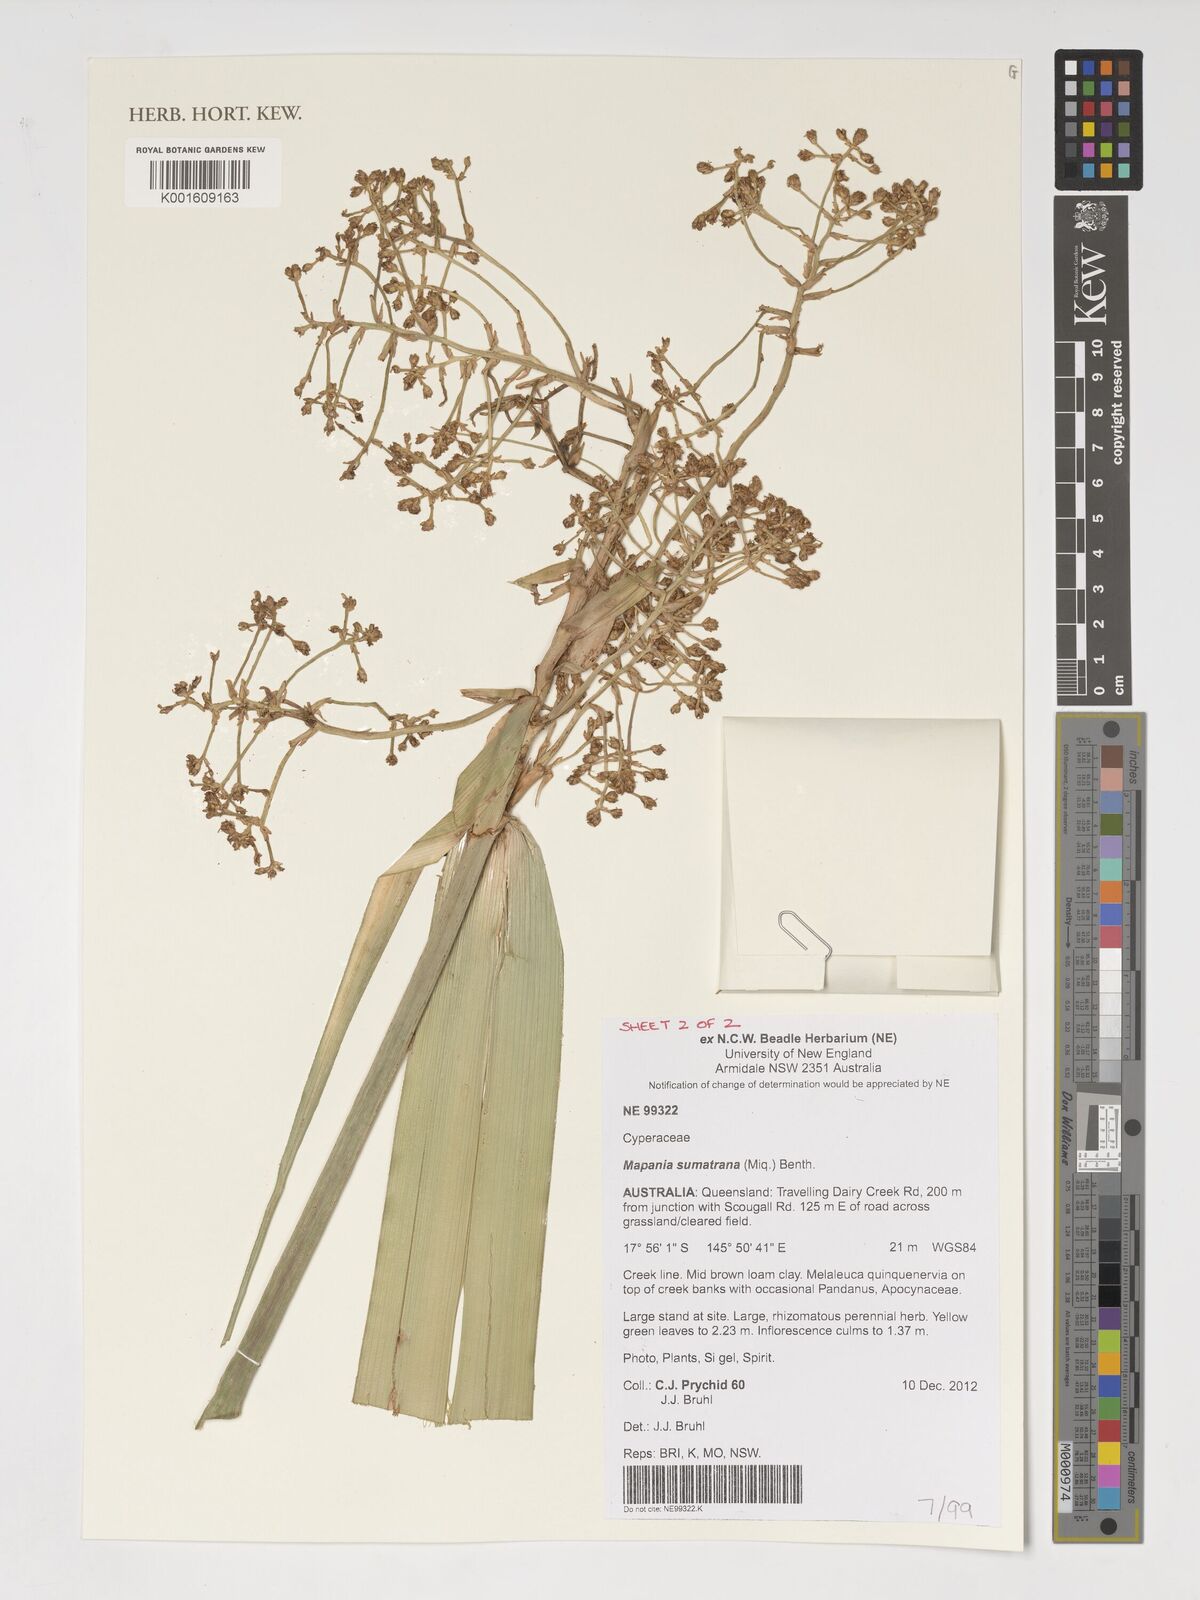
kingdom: Plantae
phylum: Tracheophyta
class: Liliopsida
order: Poales
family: Cyperaceae
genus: Mapania
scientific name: Mapania sumatrana
